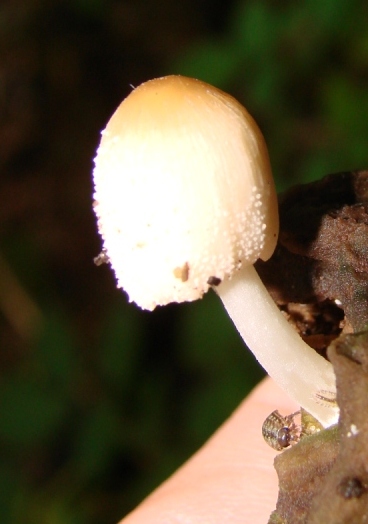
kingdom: Fungi
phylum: Basidiomycota
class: Agaricomycetes
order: Agaricales
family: Psathyrellaceae
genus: Coprinellus
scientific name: Coprinellus xanthothrix
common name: gultrådet blækhat
